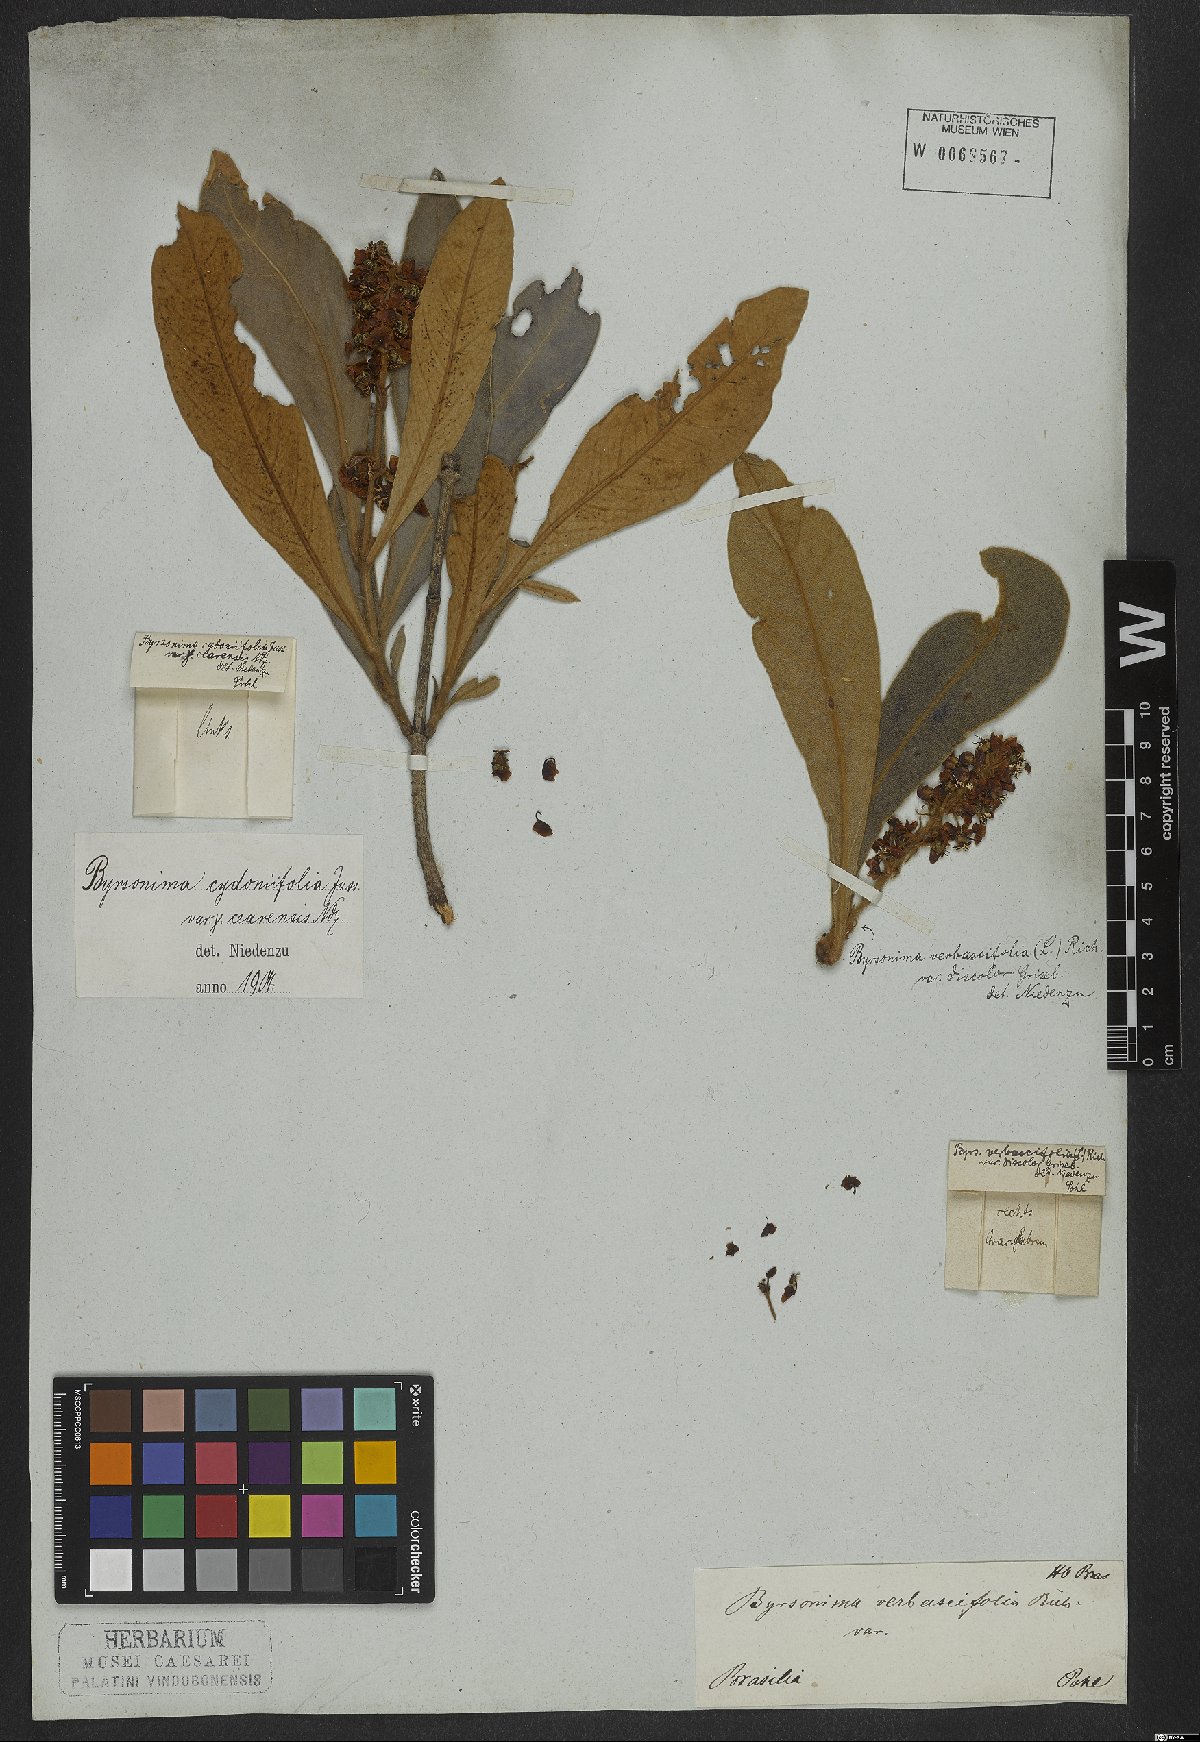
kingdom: Plantae
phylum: Tracheophyta
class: Magnoliopsida
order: Malpighiales
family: Malpighiaceae
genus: Byrsonima
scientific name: Byrsonima cydoniifolia
